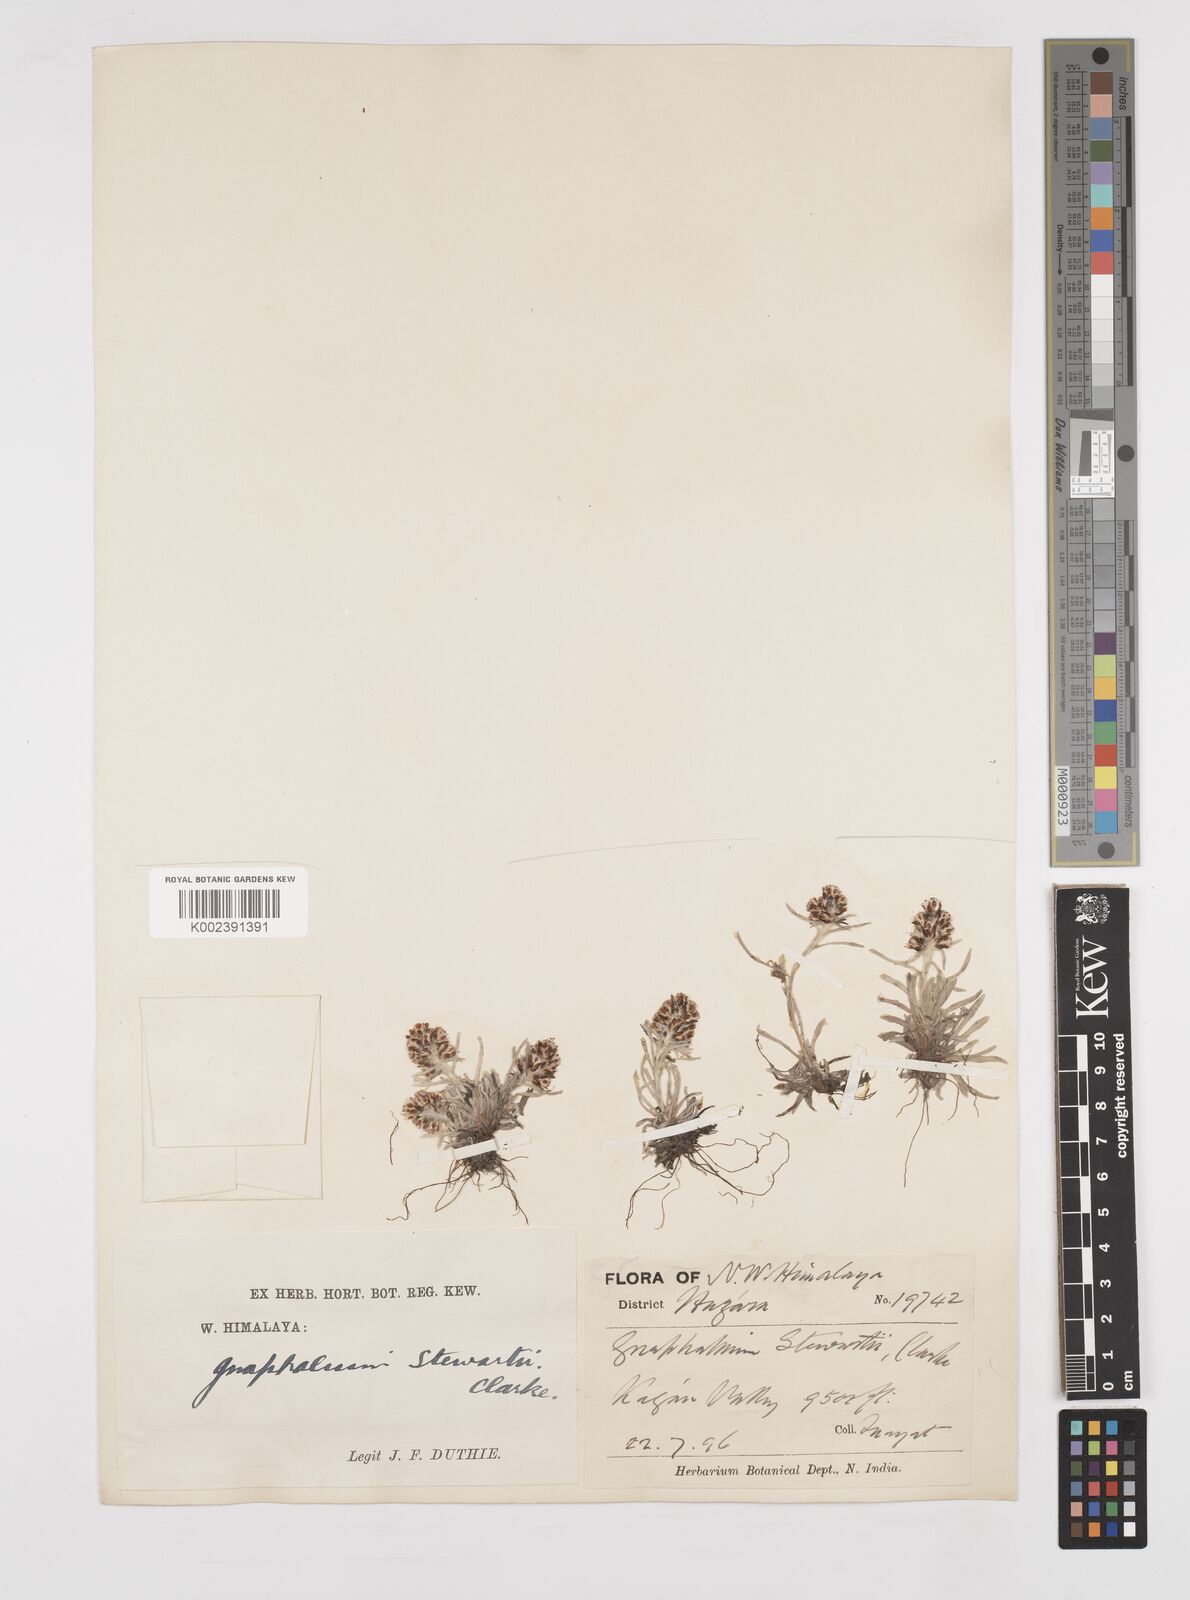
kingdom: Plantae
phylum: Tracheophyta
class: Magnoliopsida
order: Asterales
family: Asteraceae
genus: Gnaphalium
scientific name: Gnaphalium stewartii
